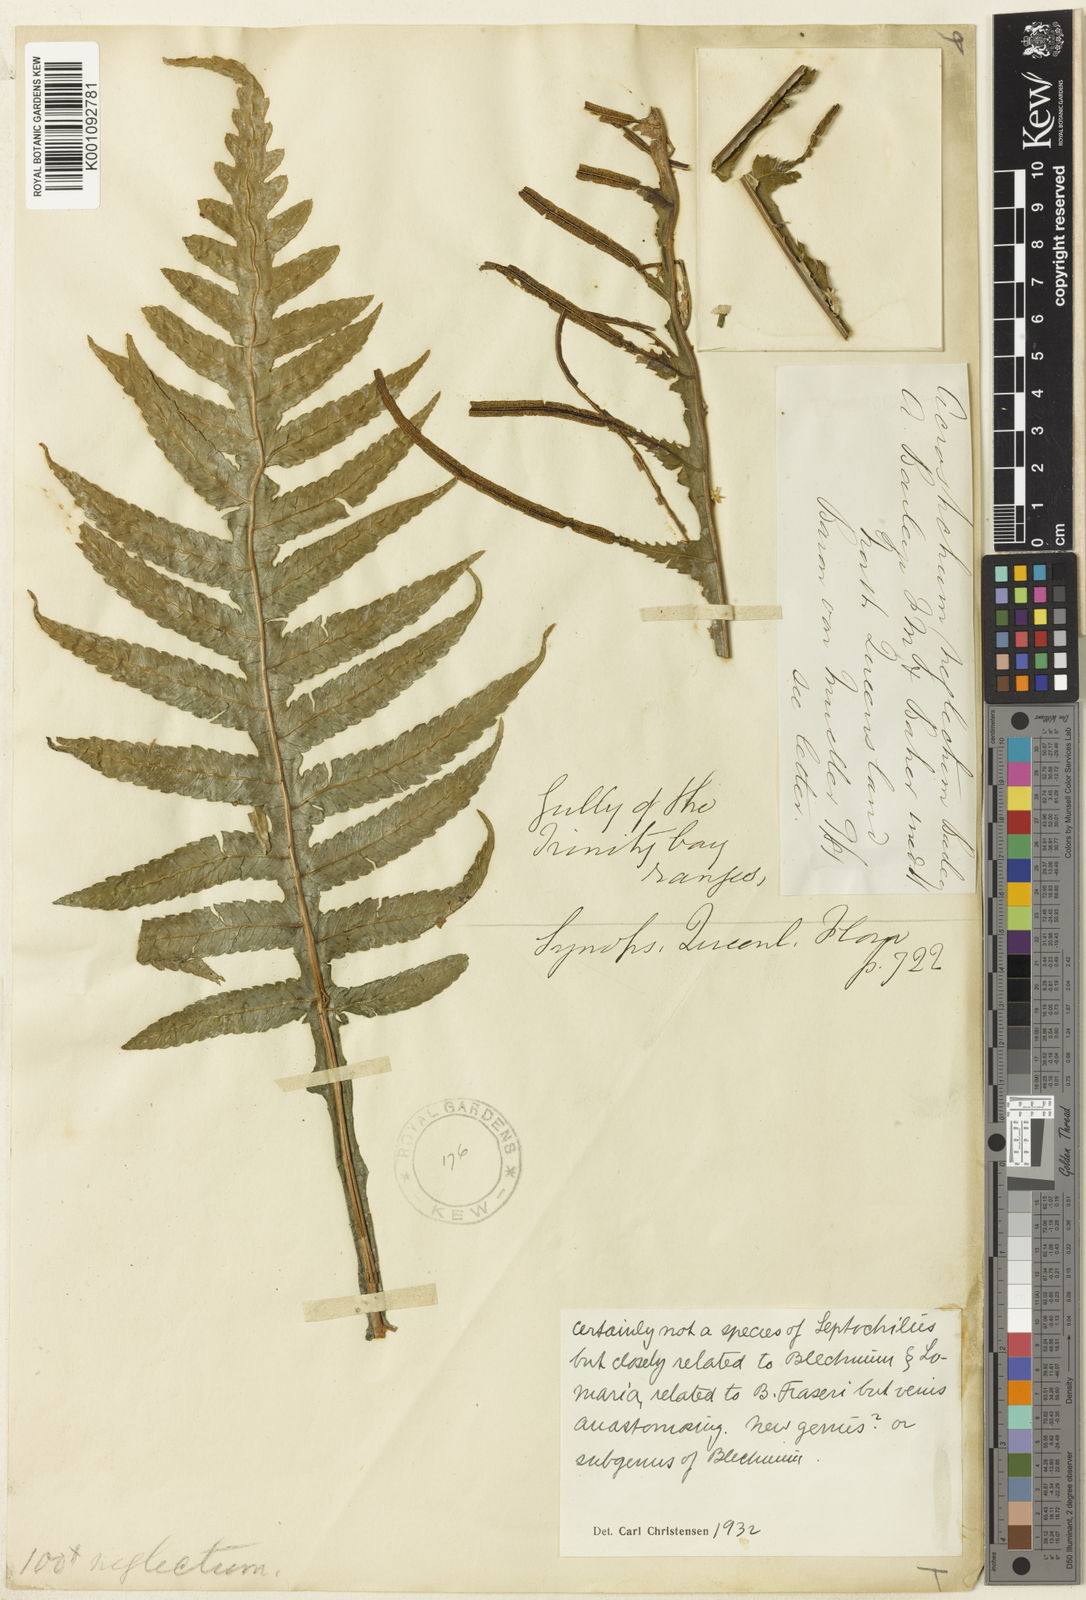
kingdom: Plantae
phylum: Tracheophyta
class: Polypodiopsida
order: Polypodiales
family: Blechnaceae
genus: Diploblechnum
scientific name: Diploblechnum neglectum
